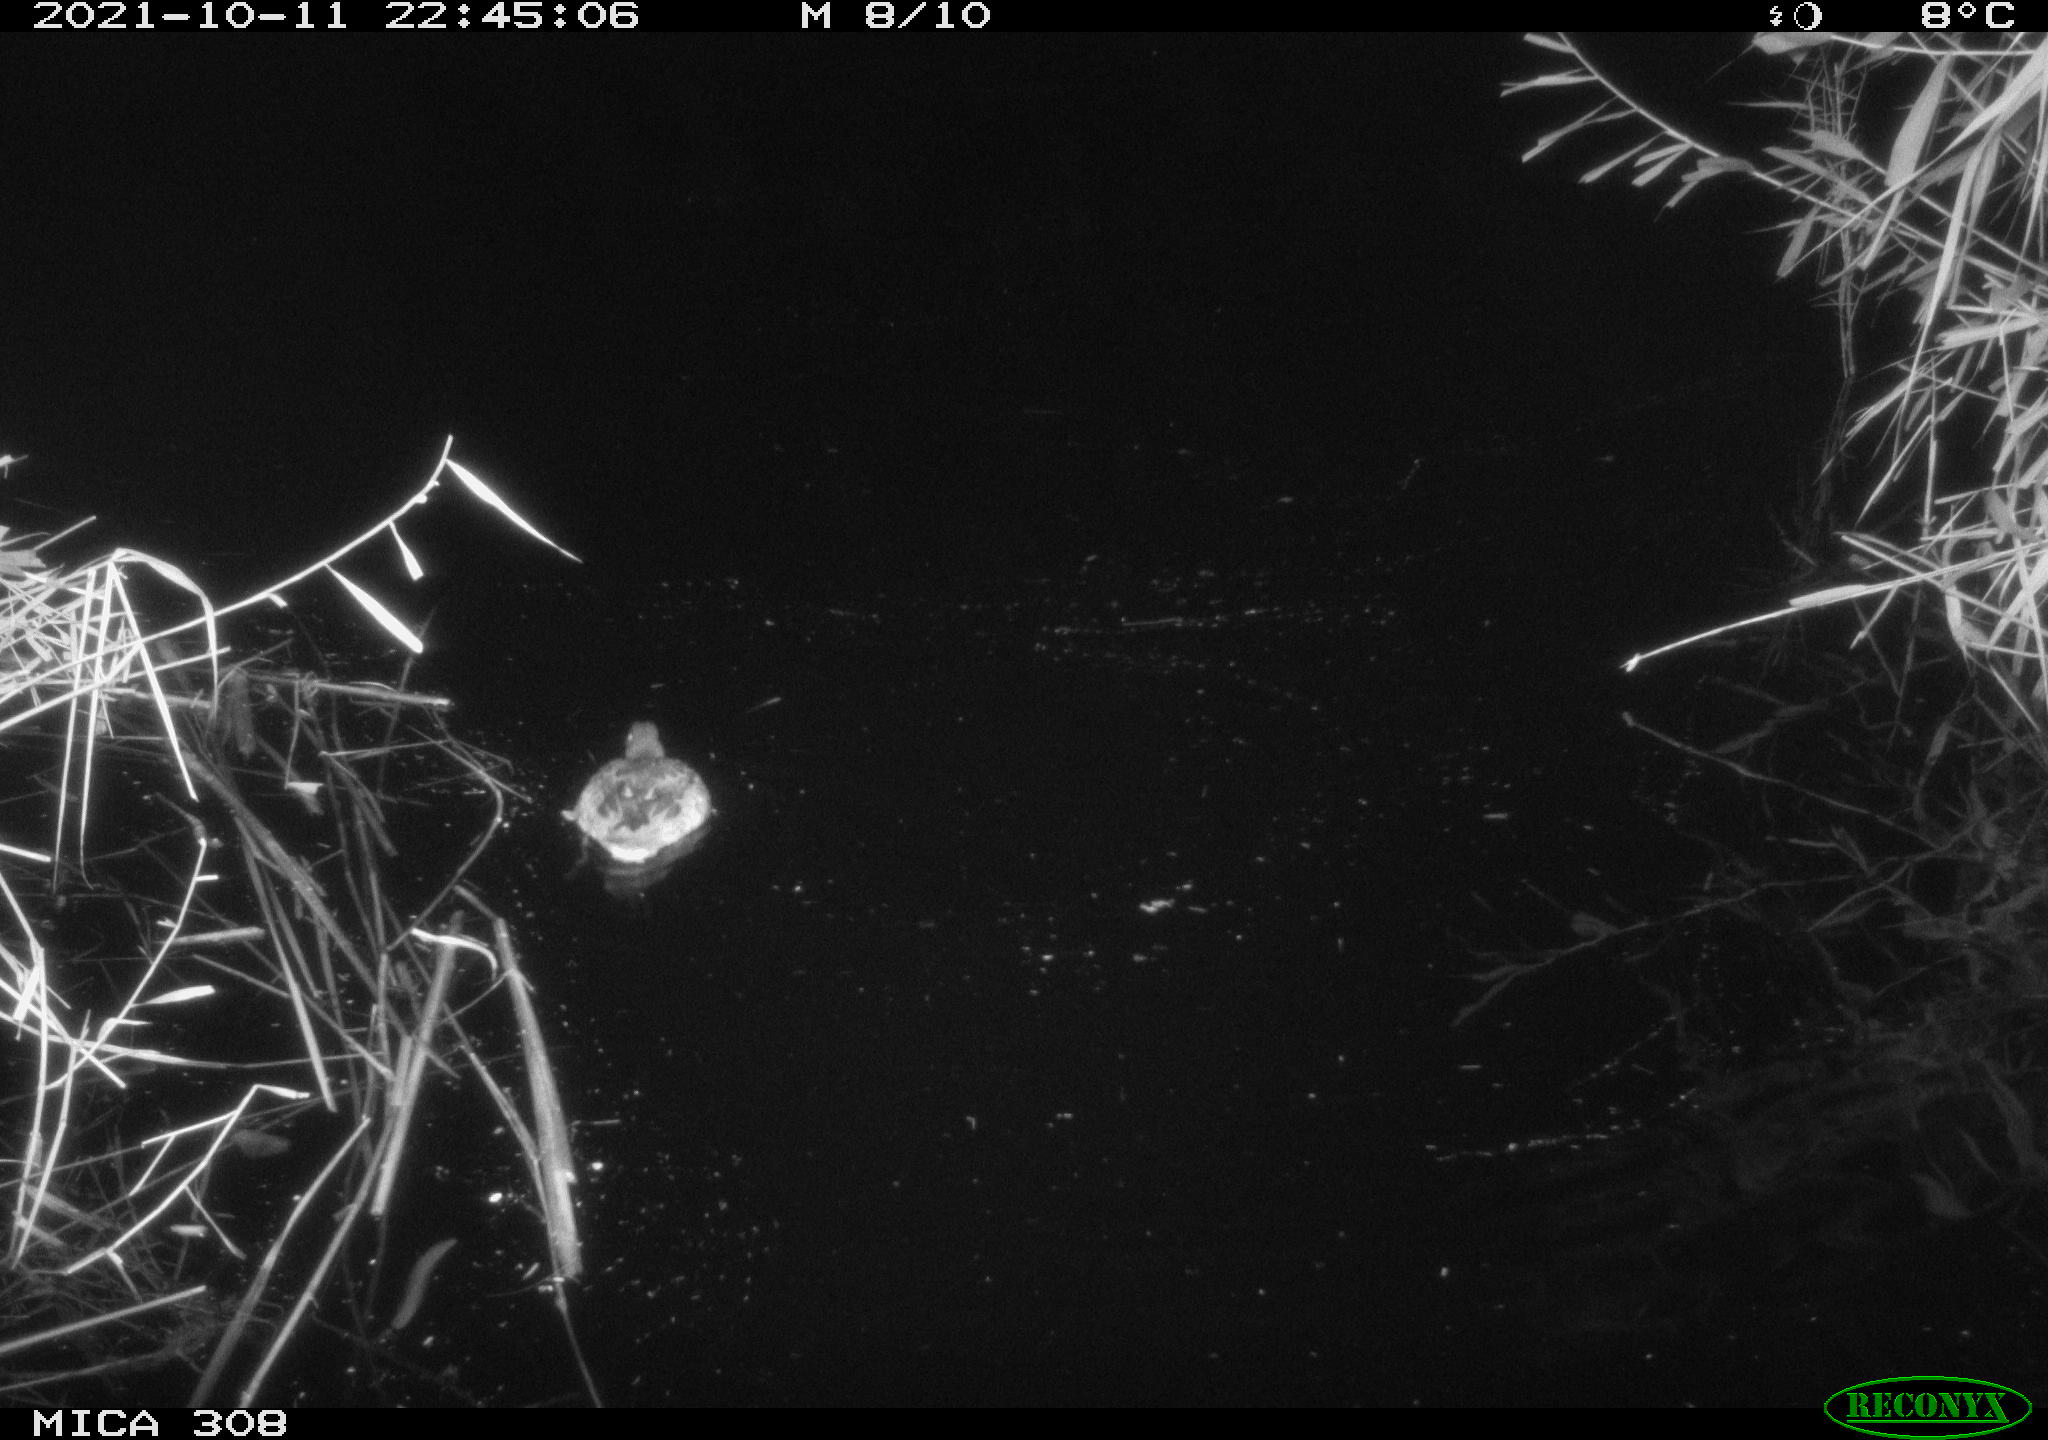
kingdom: Animalia
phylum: Chordata
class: Aves
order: Anseriformes
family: Anatidae
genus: Spatula
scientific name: Spatula clypeata
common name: Northern shoveler
